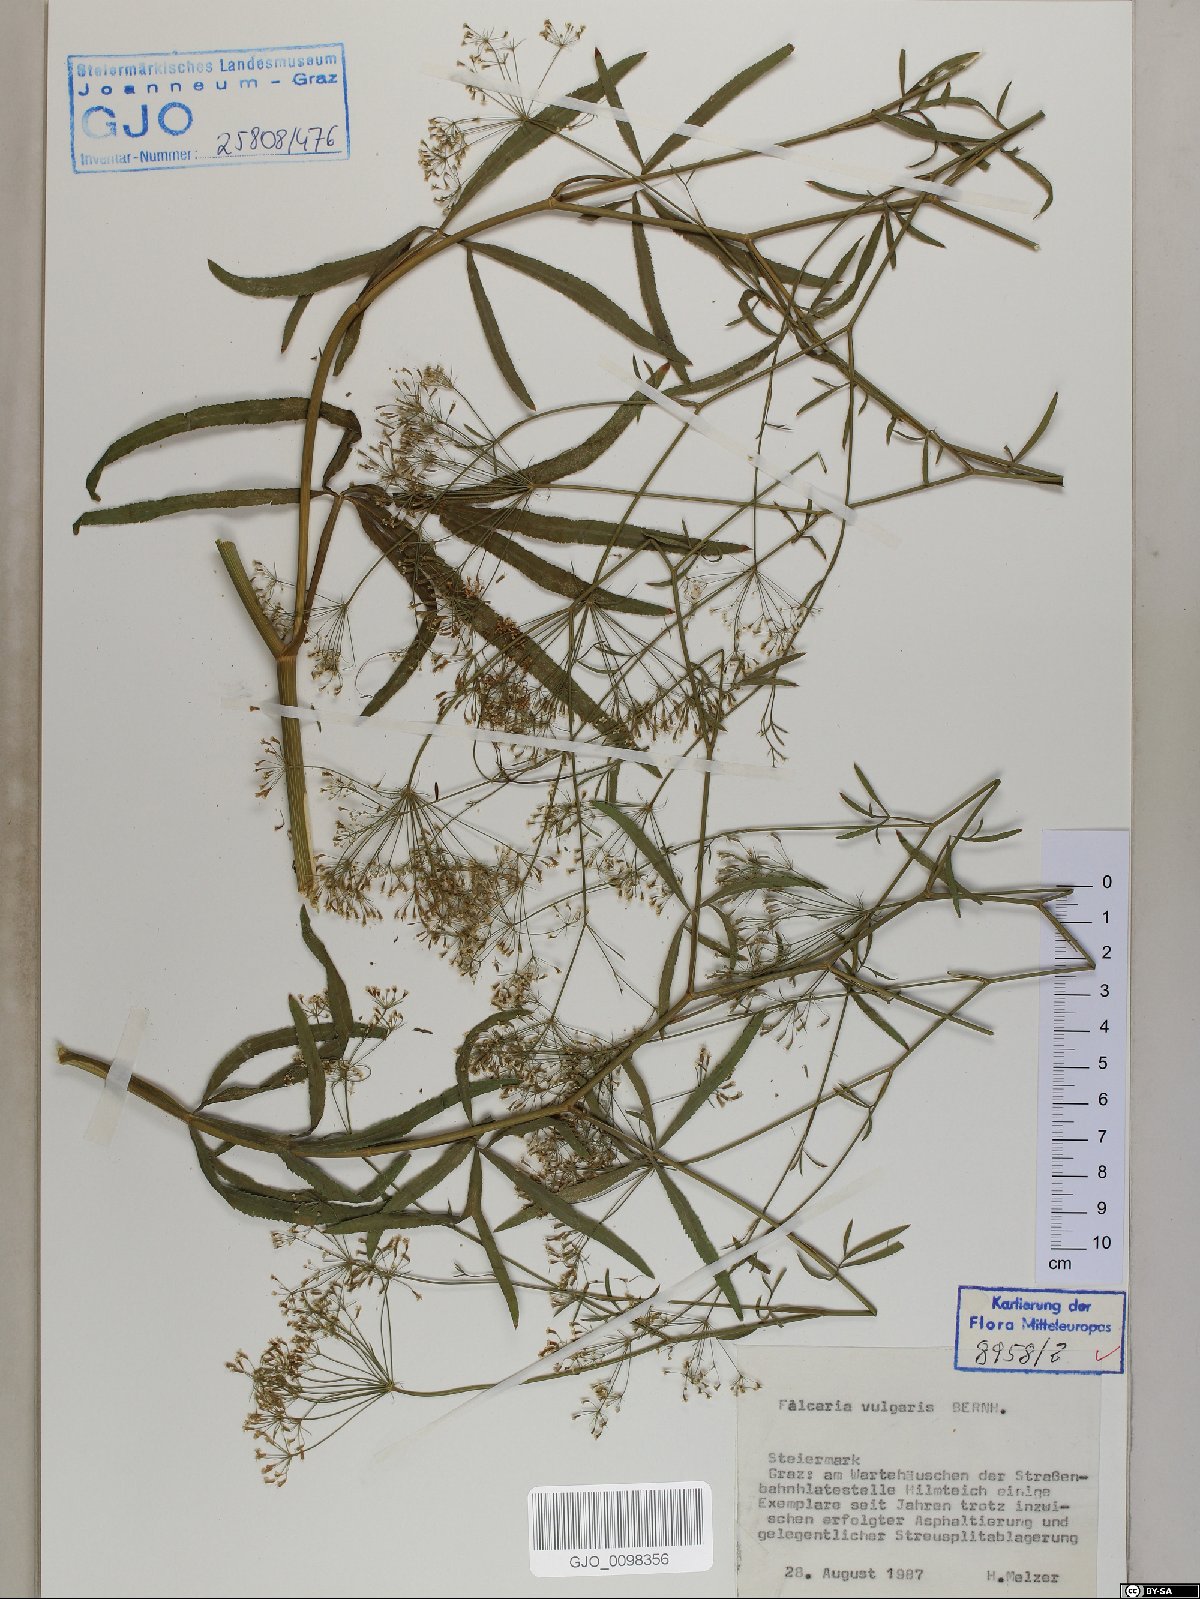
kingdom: Plantae
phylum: Tracheophyta
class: Magnoliopsida
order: Apiales
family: Apiaceae
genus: Falcaria
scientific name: Falcaria vulgaris
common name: Longleaf
